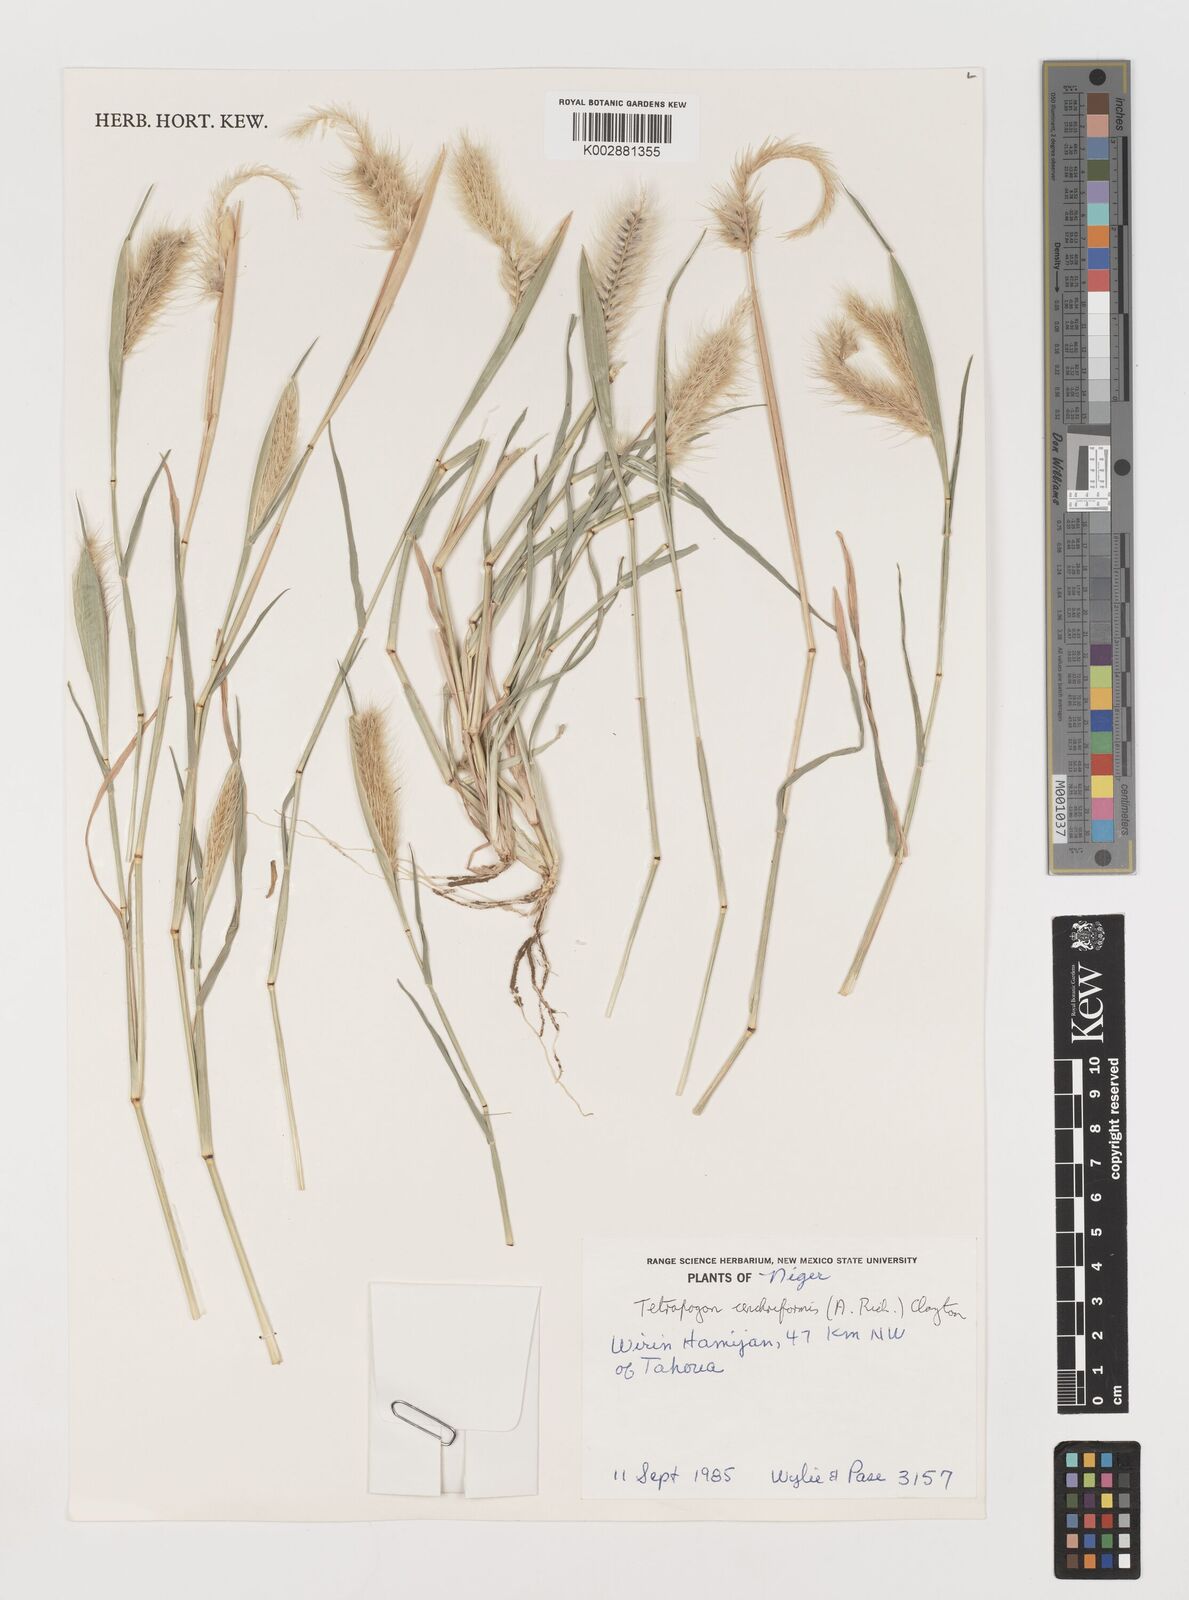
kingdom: Plantae
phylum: Tracheophyta
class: Liliopsida
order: Poales
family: Poaceae
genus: Tetrapogon
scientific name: Tetrapogon cenchriformis
